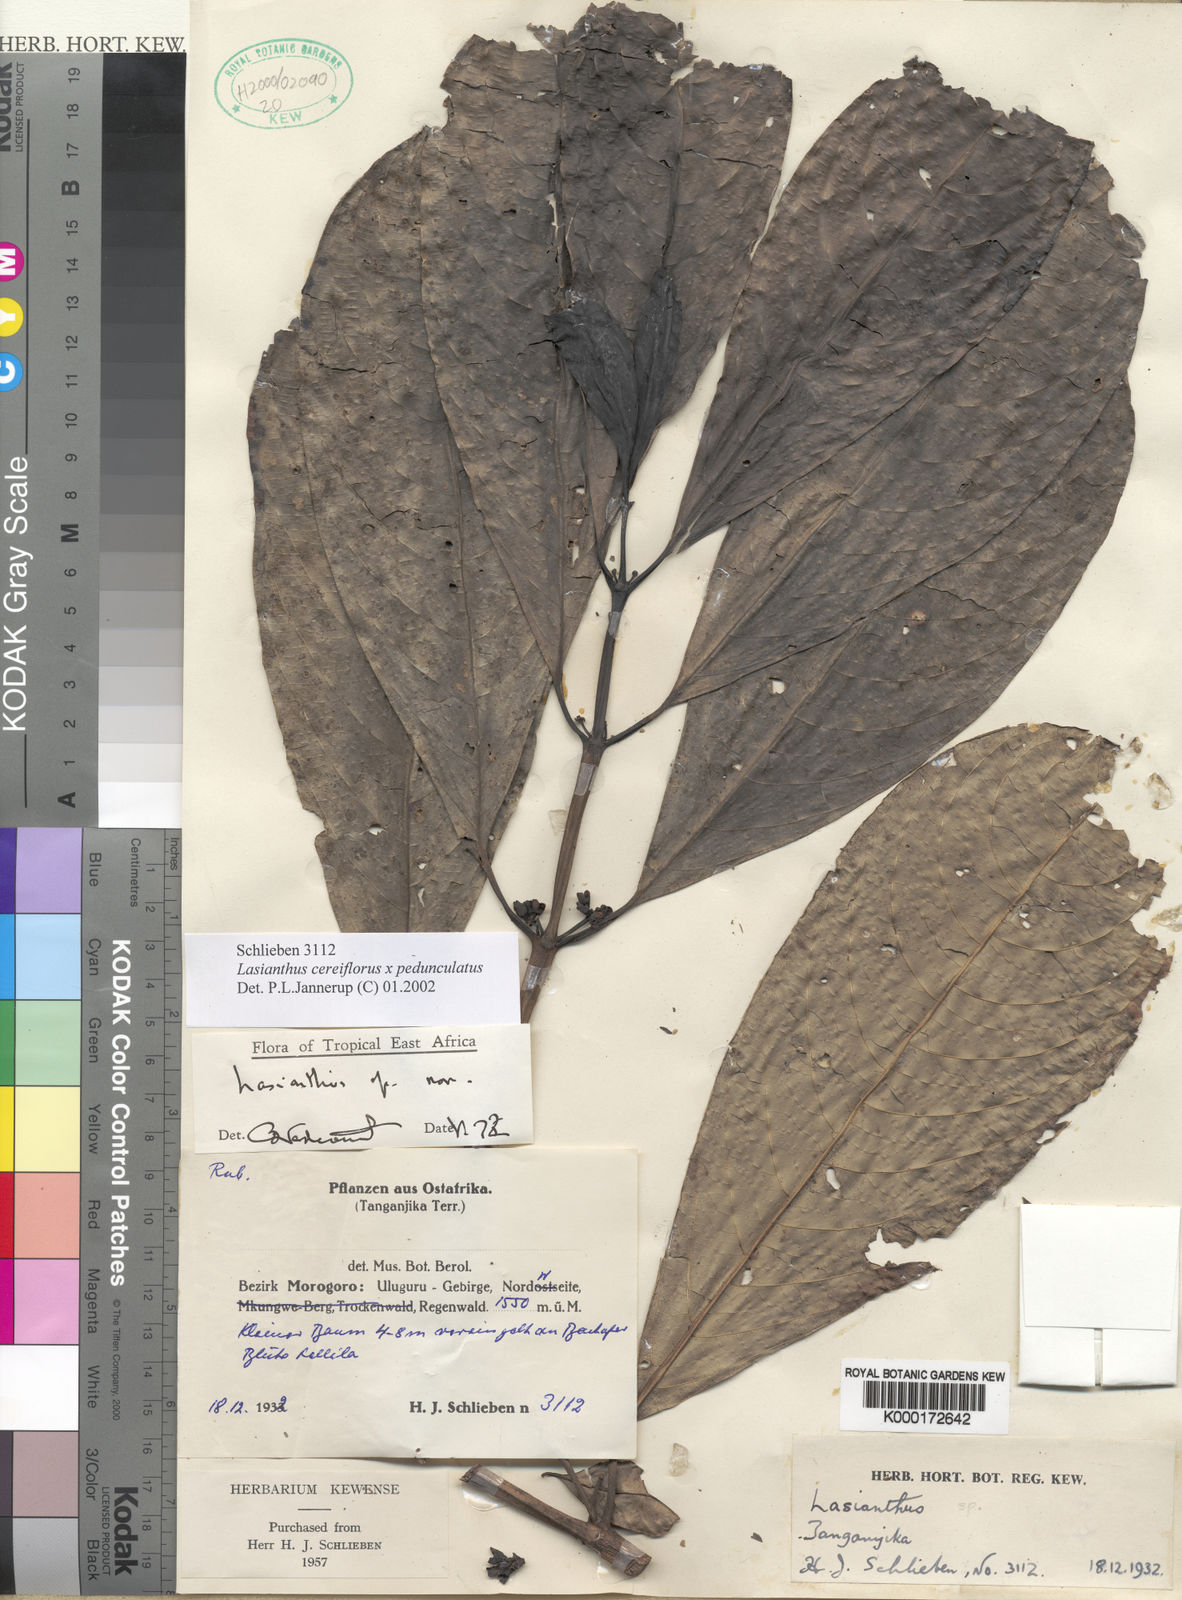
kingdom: Plantae
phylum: Tracheophyta
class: Magnoliopsida
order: Gentianales
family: Rubiaceae
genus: Lasianthus
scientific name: Lasianthus
